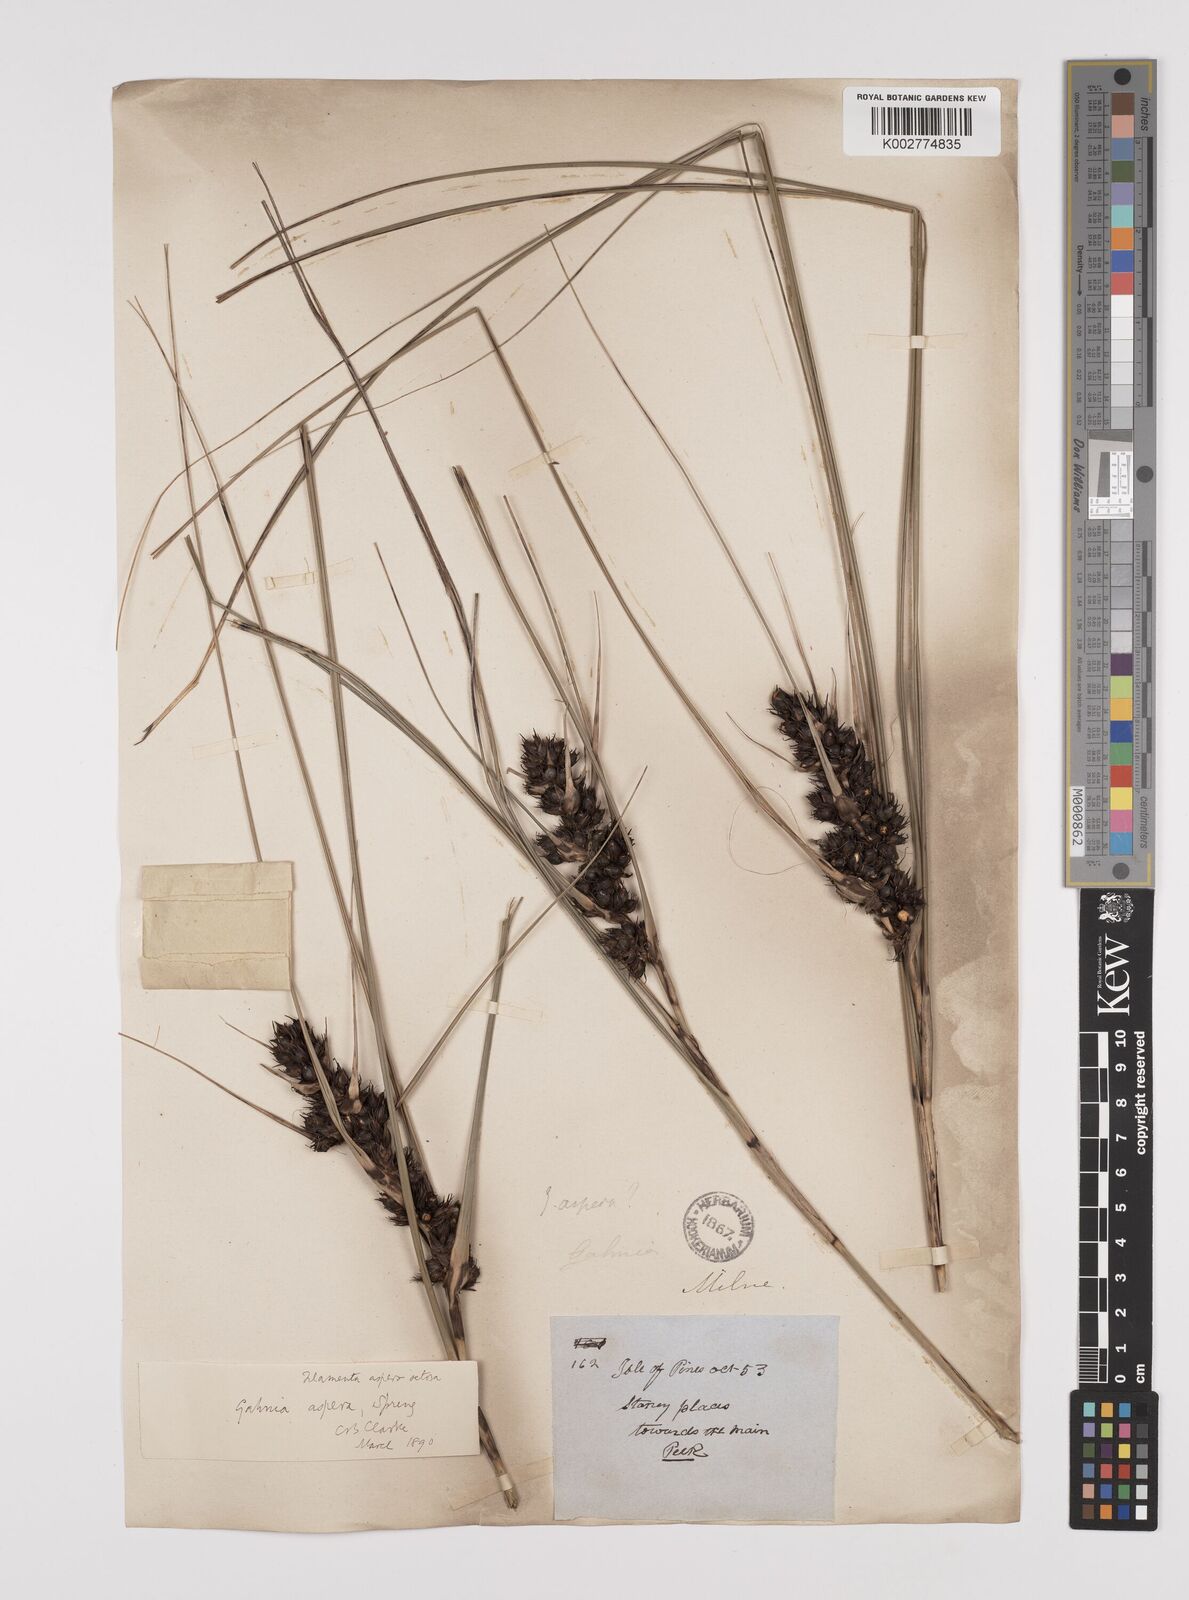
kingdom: Plantae
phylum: Tracheophyta
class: Liliopsida
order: Poales
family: Cyperaceae
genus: Gahnia
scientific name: Gahnia aspera
